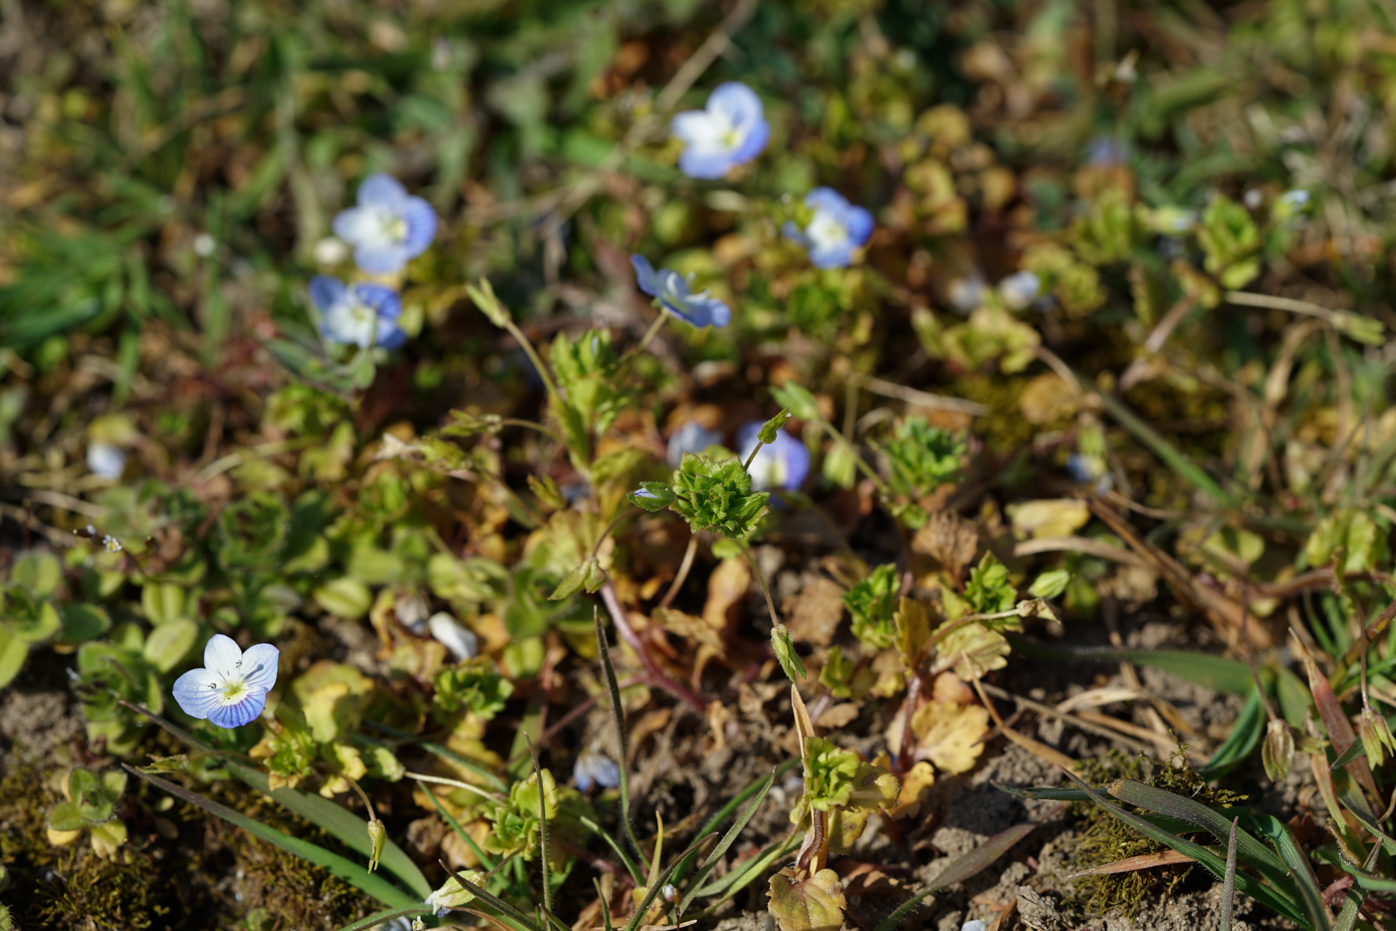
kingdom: Plantae
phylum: Tracheophyta
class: Magnoliopsida
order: Lamiales
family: Plantaginaceae
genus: Veronica
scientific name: Veronica agrestis
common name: Green field-speedwell
